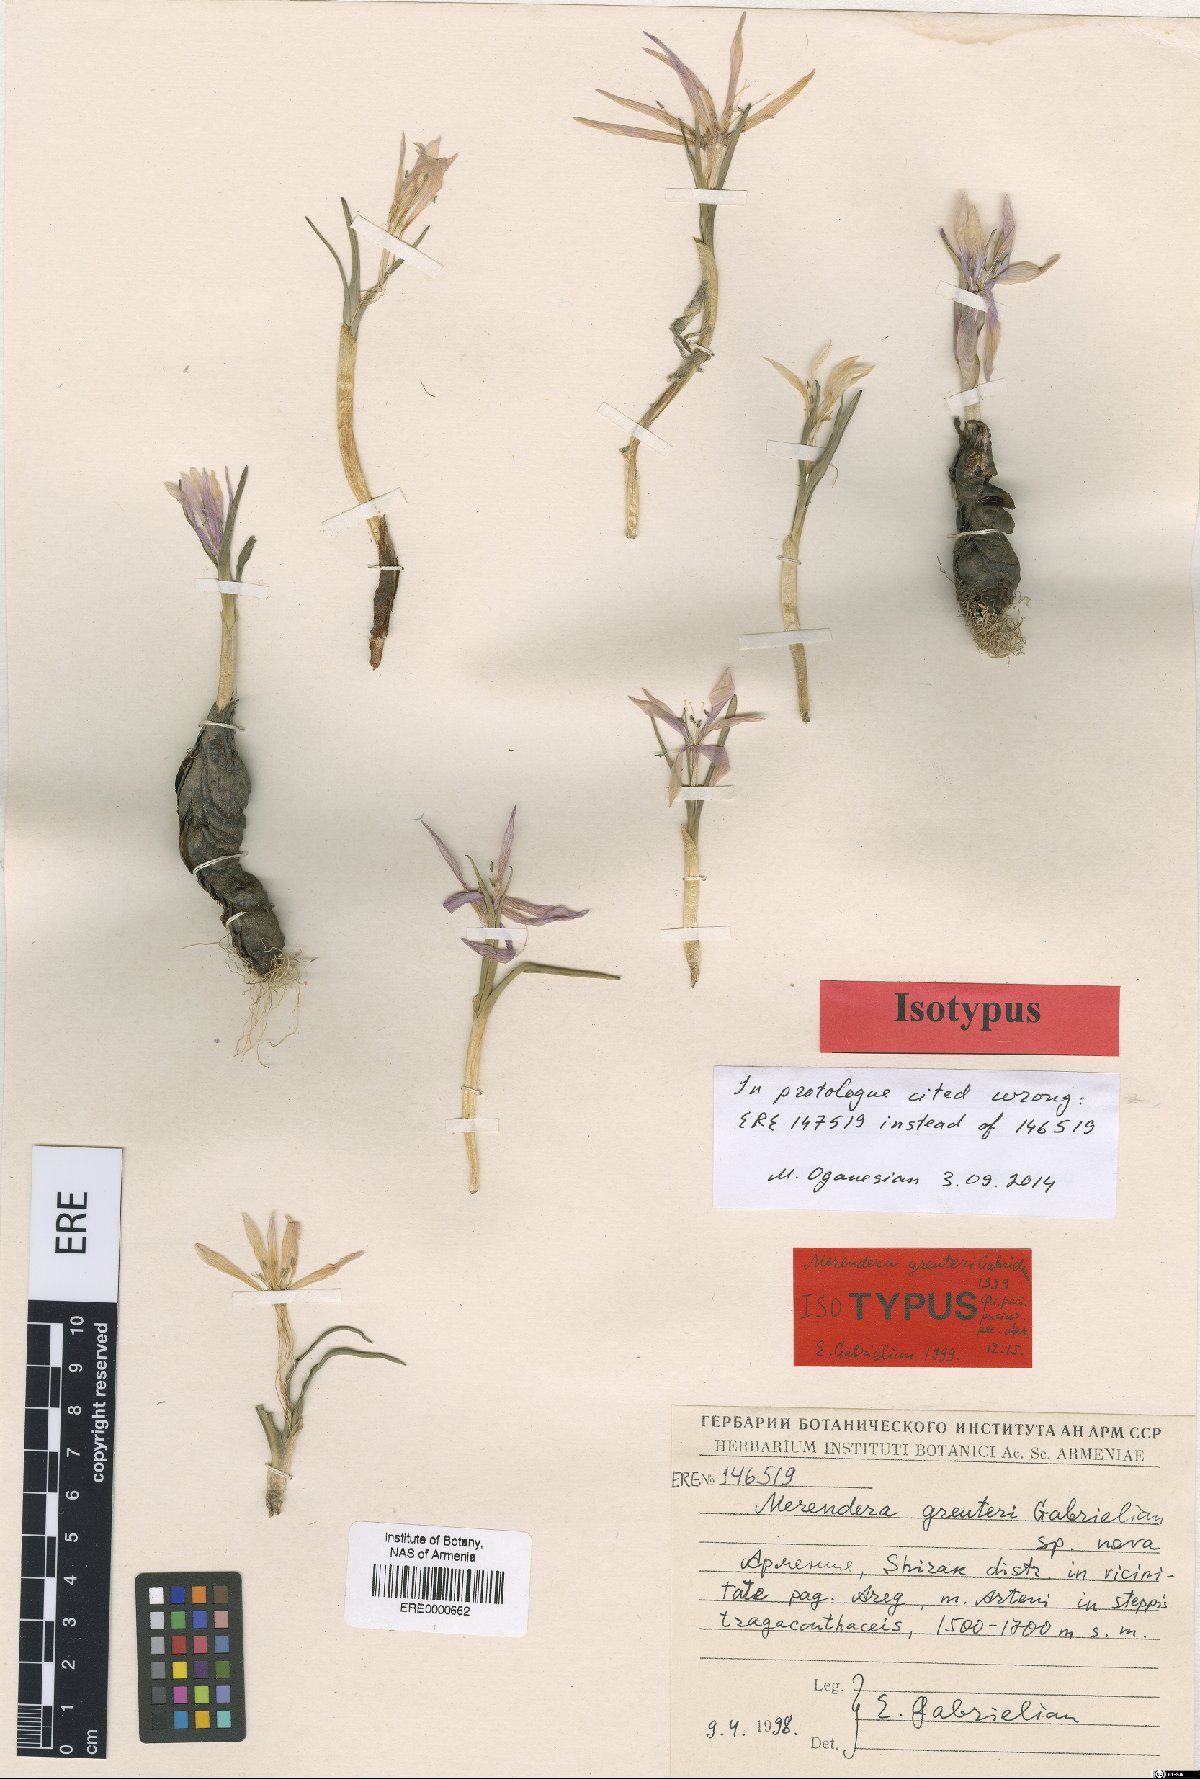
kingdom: Plantae
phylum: Tracheophyta
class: Liliopsida
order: Liliales
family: Colchicaceae
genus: Colchicum
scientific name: Colchicum trigynum
